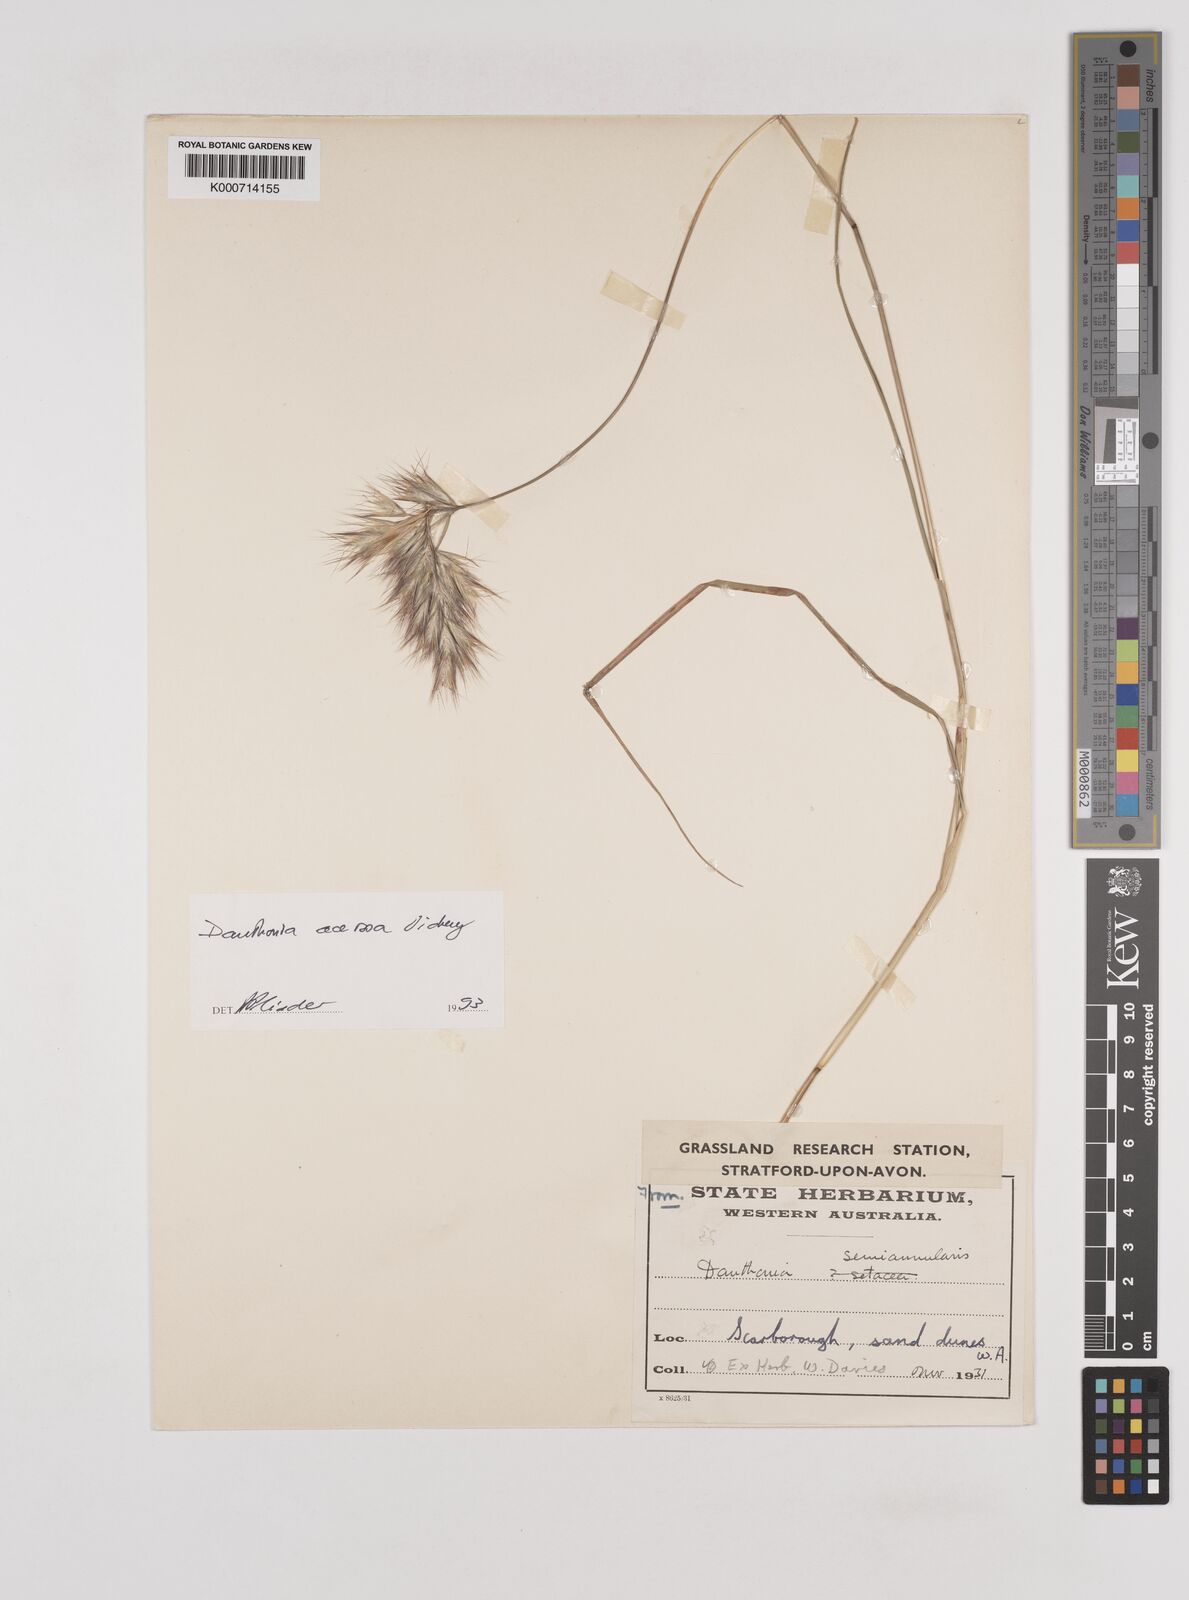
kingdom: Plantae
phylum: Tracheophyta
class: Liliopsida
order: Poales
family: Poaceae
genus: Rytidosperma
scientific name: Rytidosperma
